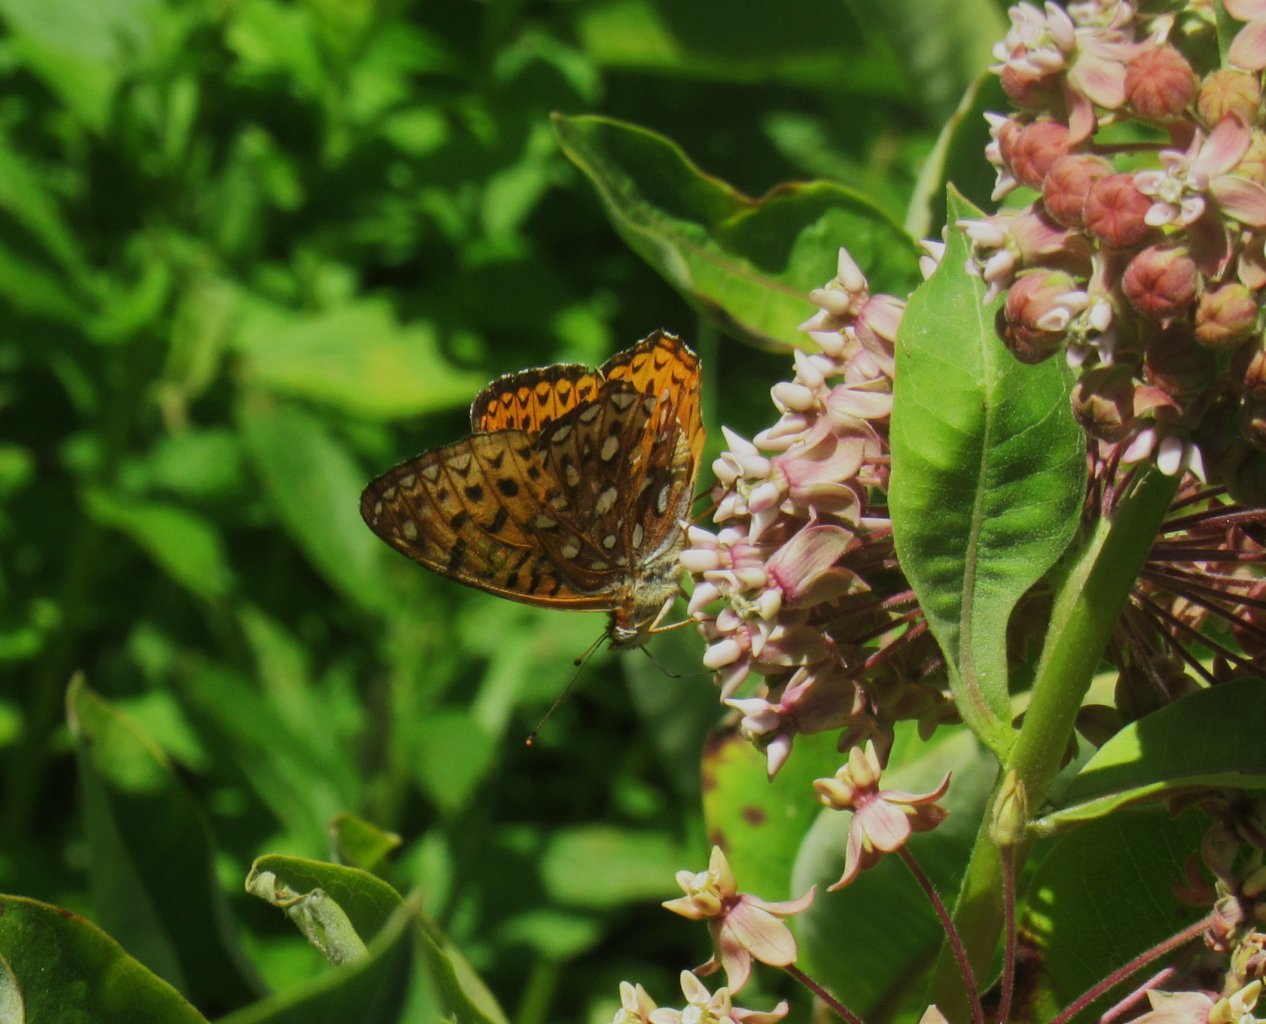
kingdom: Animalia
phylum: Arthropoda
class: Insecta
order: Lepidoptera
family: Nymphalidae
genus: Speyeria
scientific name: Speyeria atlantis
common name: Atlantis Fritillary
